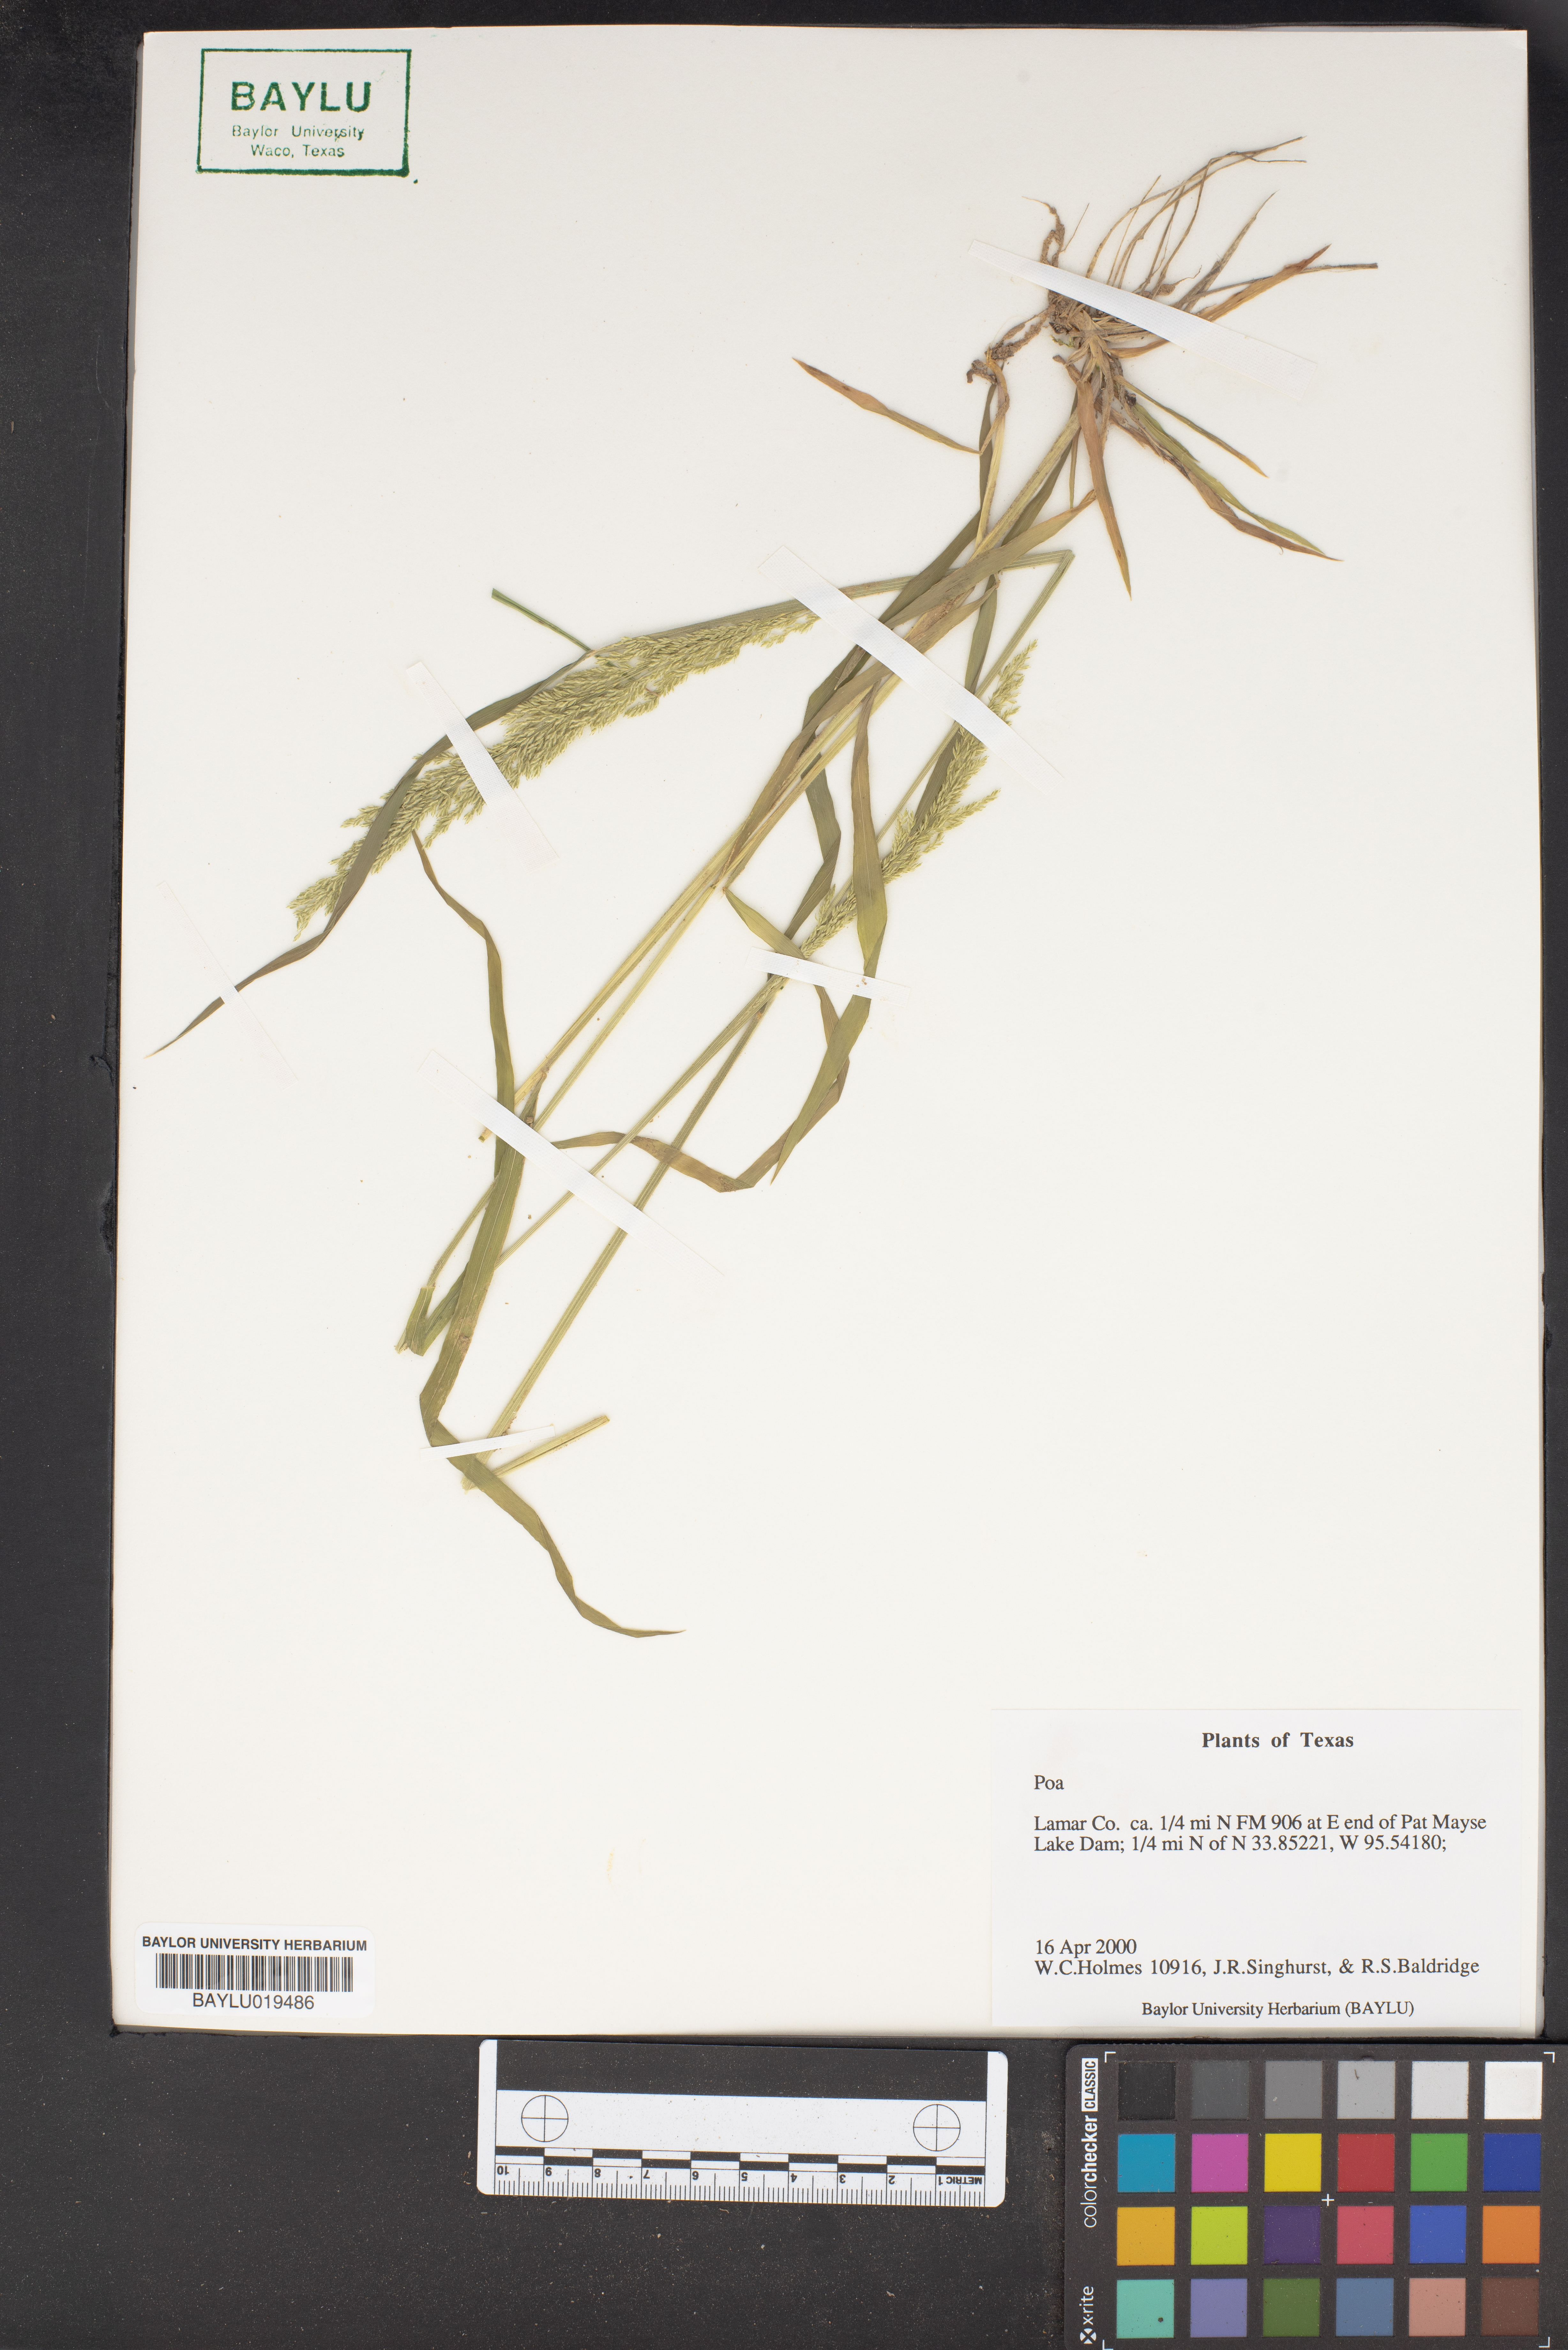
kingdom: Plantae
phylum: Tracheophyta
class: Liliopsida
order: Poales
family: Poaceae
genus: Poa
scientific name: Poa
